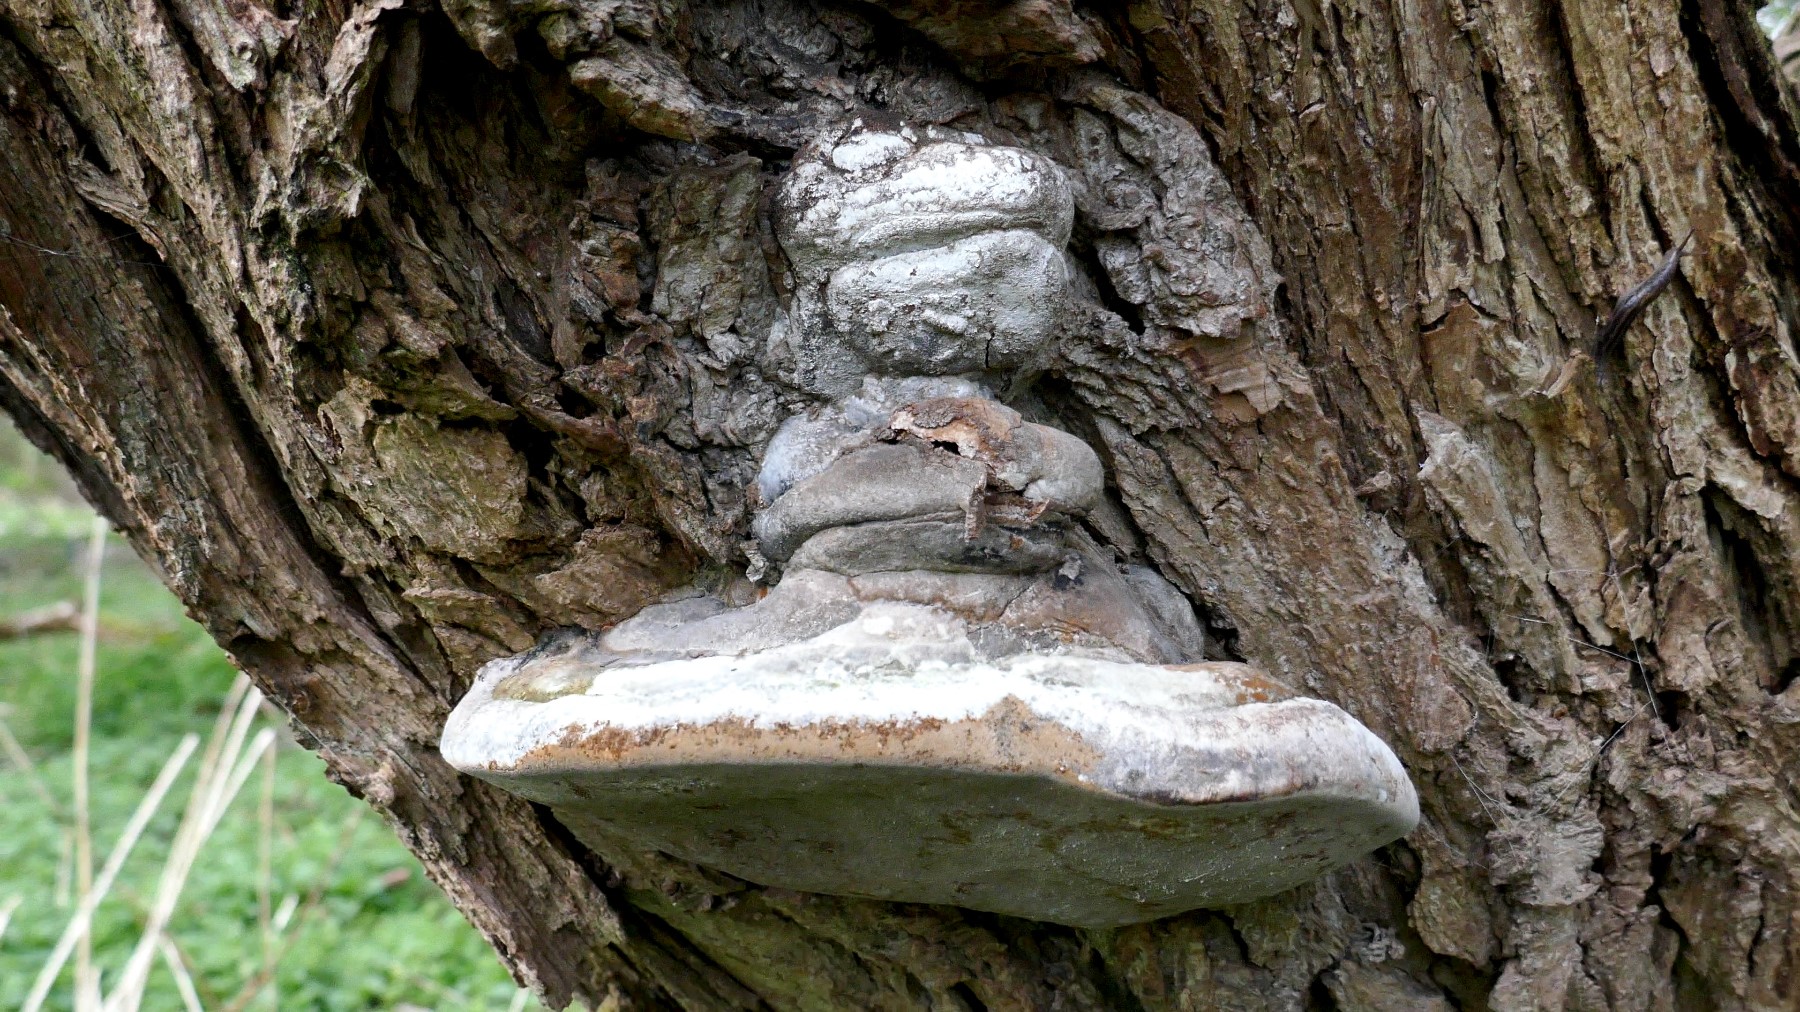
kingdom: Fungi
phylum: Basidiomycota
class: Agaricomycetes
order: Hymenochaetales
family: Hymenochaetaceae
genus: Phellinus
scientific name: Phellinus igniarius
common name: almindelig ildporesvamp
